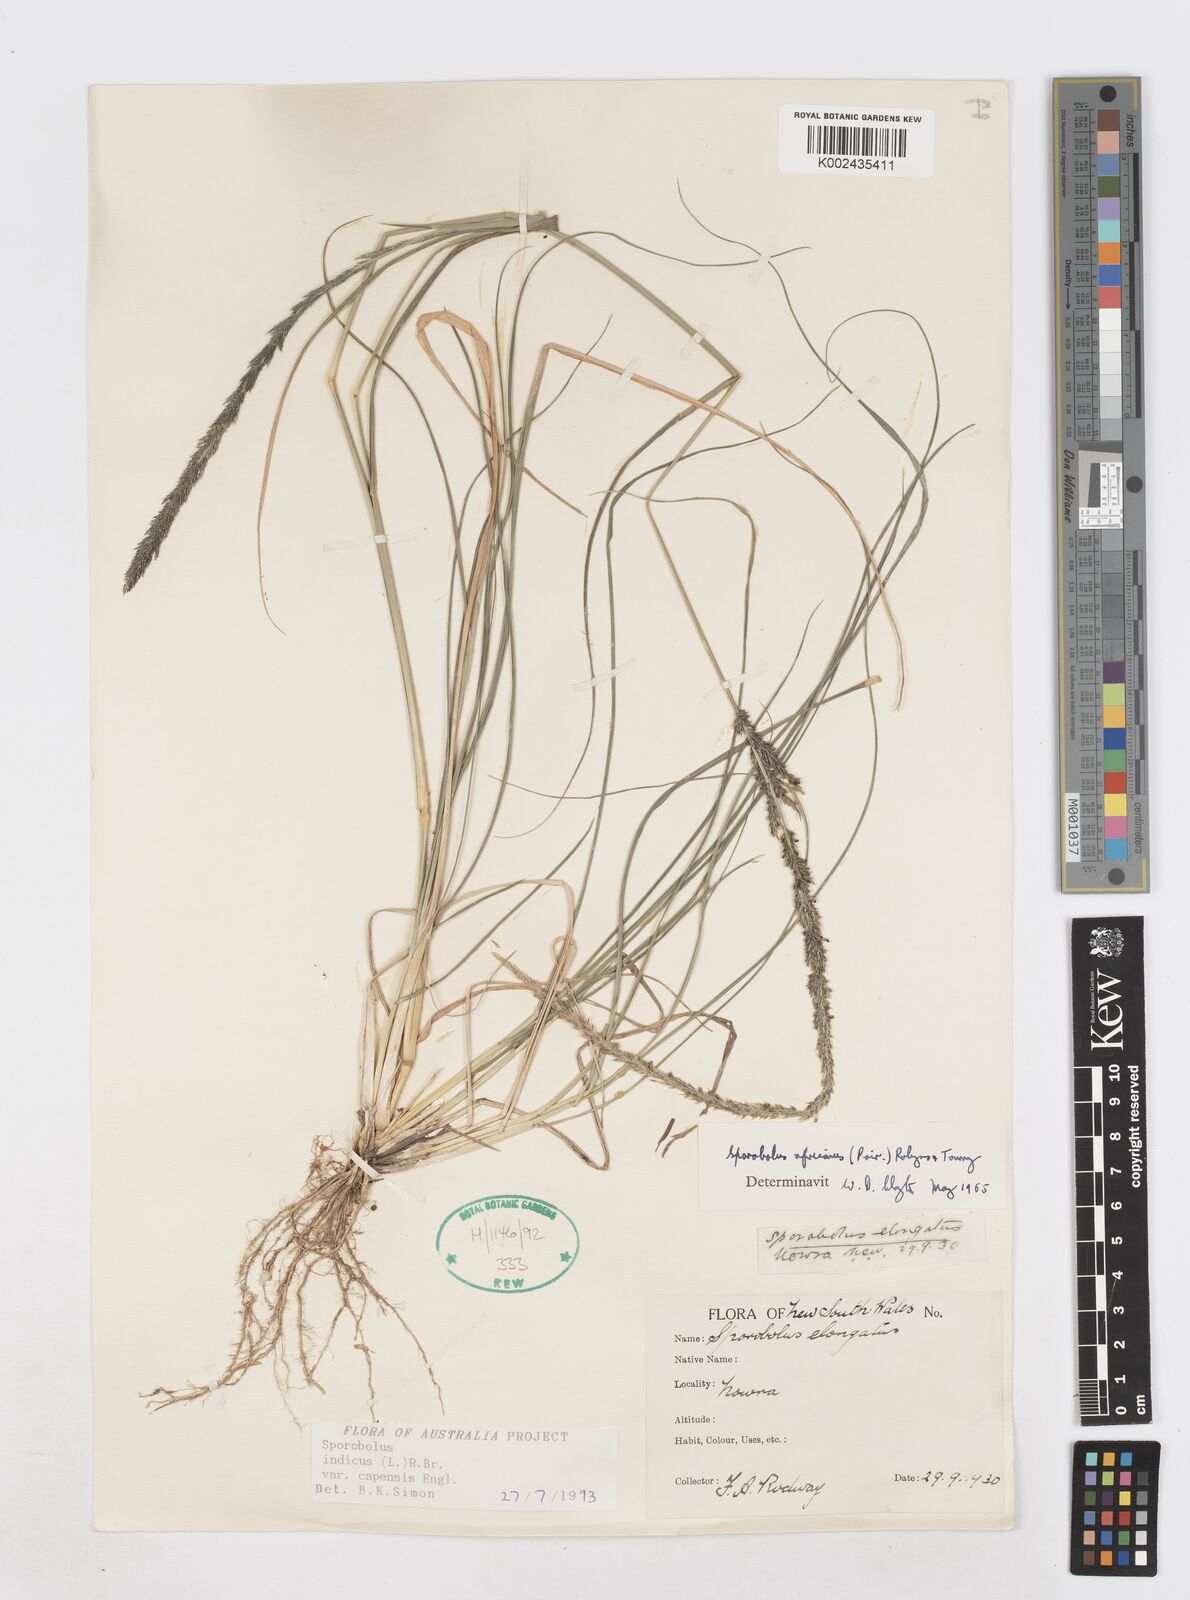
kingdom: Plantae
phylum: Tracheophyta
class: Liliopsida
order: Poales
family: Poaceae
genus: Sporobolus
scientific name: Sporobolus africanus
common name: African dropseed
